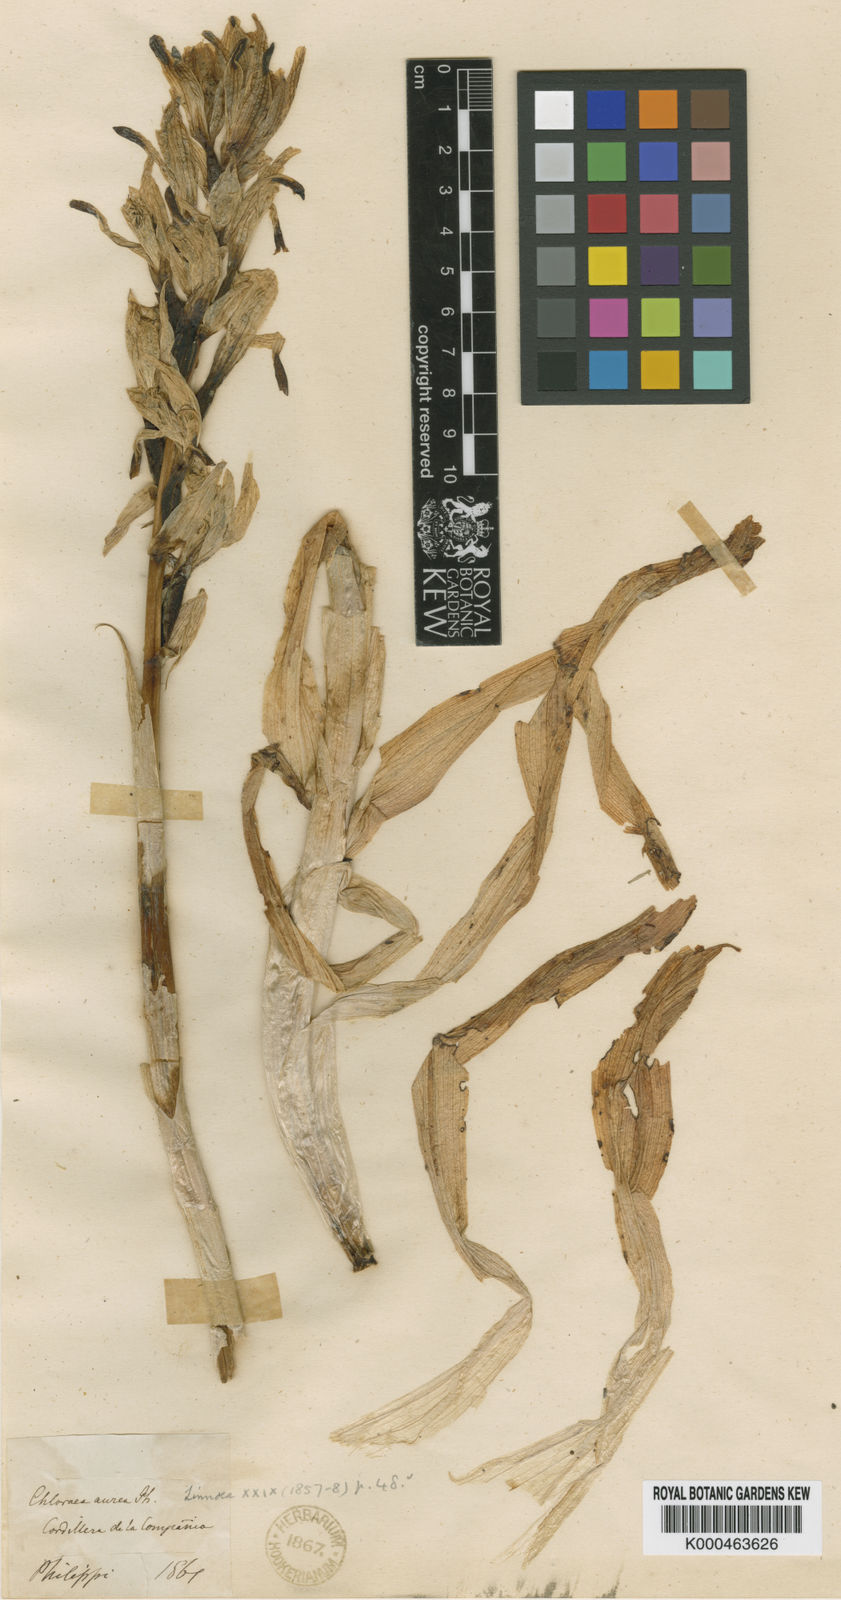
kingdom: Plantae
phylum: Tracheophyta
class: Liliopsida
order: Asparagales
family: Orchidaceae
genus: Chloraea
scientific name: Chloraea barbata
